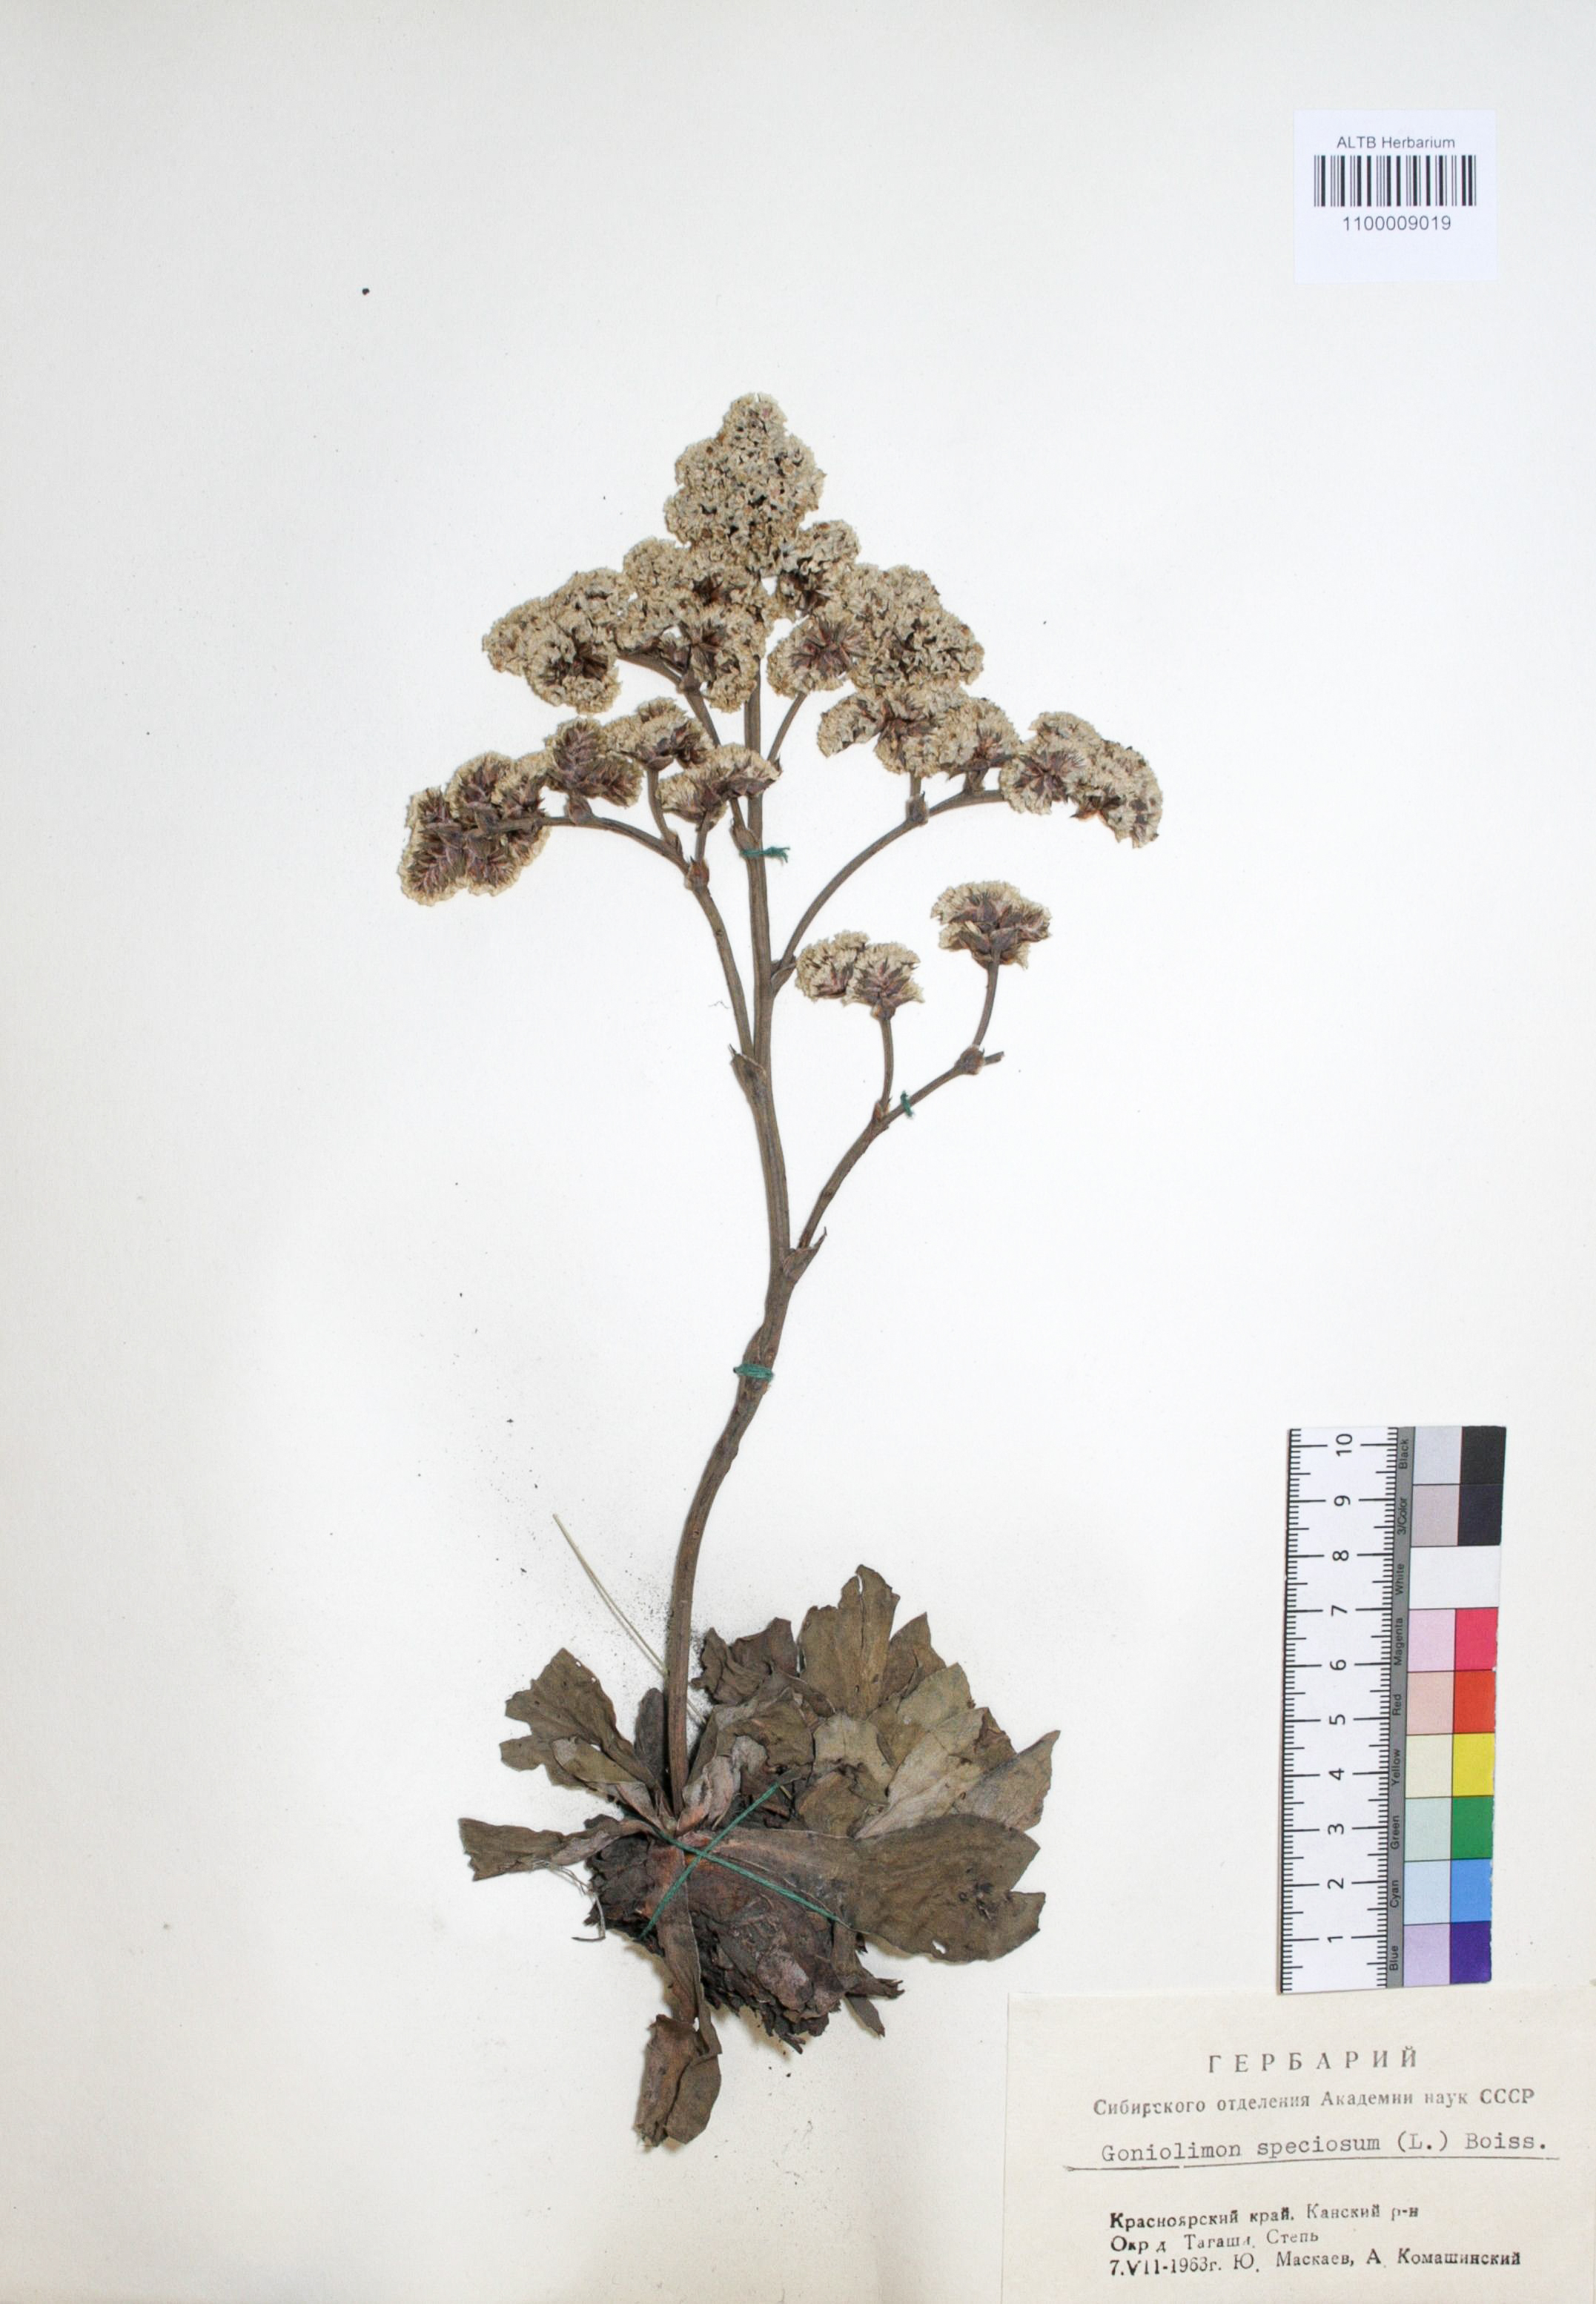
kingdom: Plantae
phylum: Tracheophyta
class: Magnoliopsida
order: Caryophyllales
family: Plumbaginaceae
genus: Goniolimon
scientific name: Goniolimon speciosum
